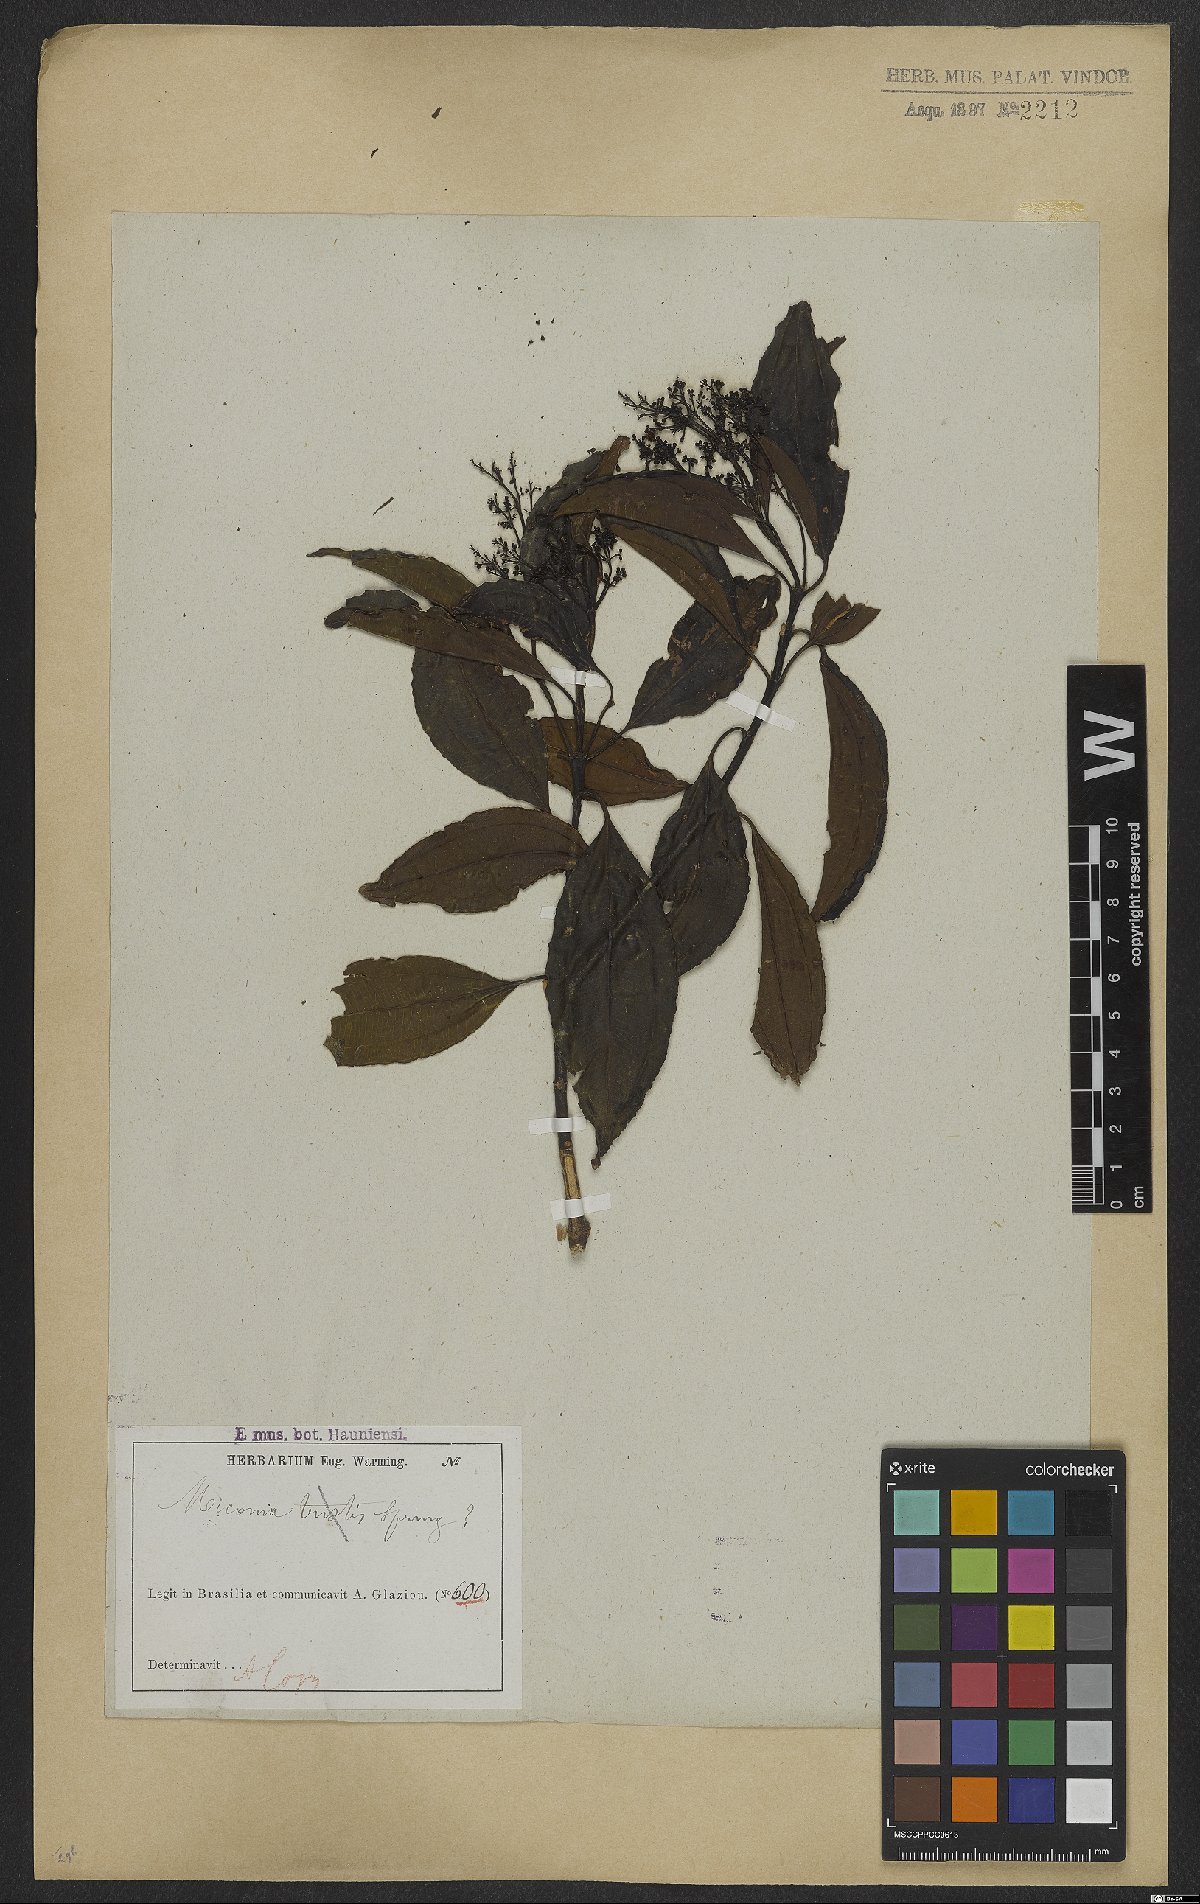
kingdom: Plantae
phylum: Tracheophyta
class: Magnoliopsida
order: Myrtales
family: Melastomataceae
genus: Miconia
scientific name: Miconia tristis
